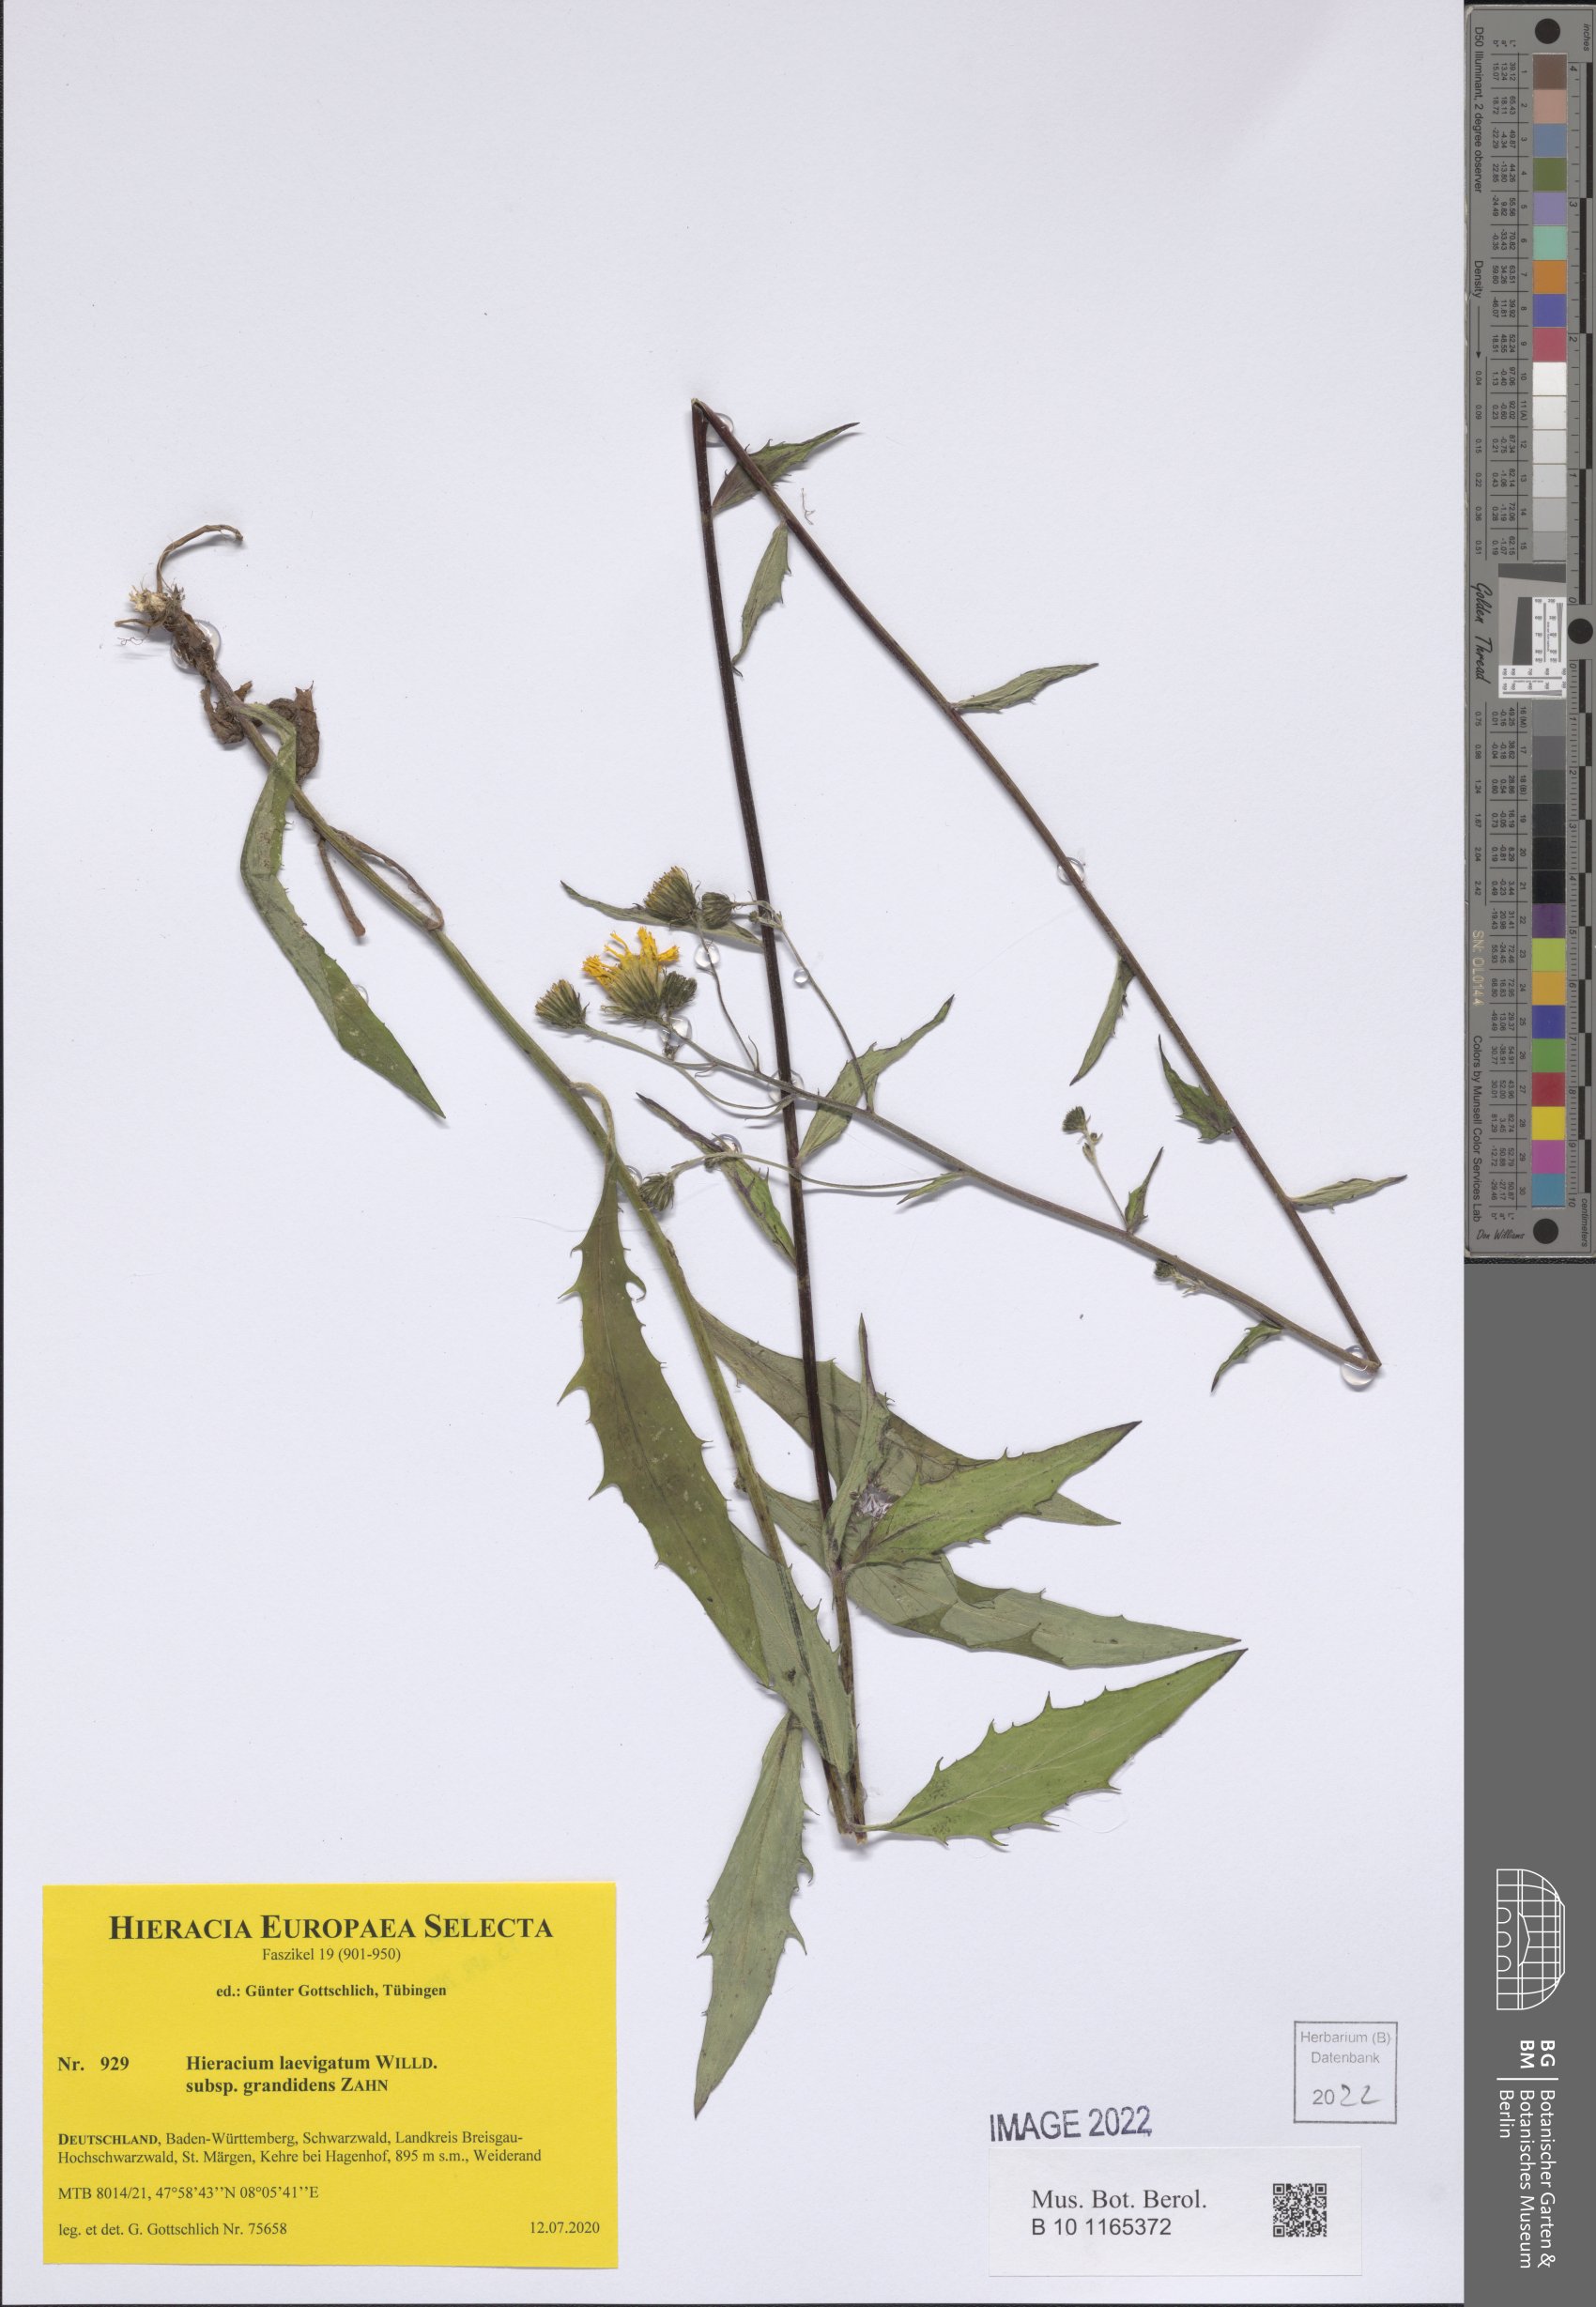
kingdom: Plantae
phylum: Tracheophyta
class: Magnoliopsida
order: Asterales
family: Asteraceae
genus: Hieracium
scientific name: Hieracium laevigatum
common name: Smooth hawkweed
